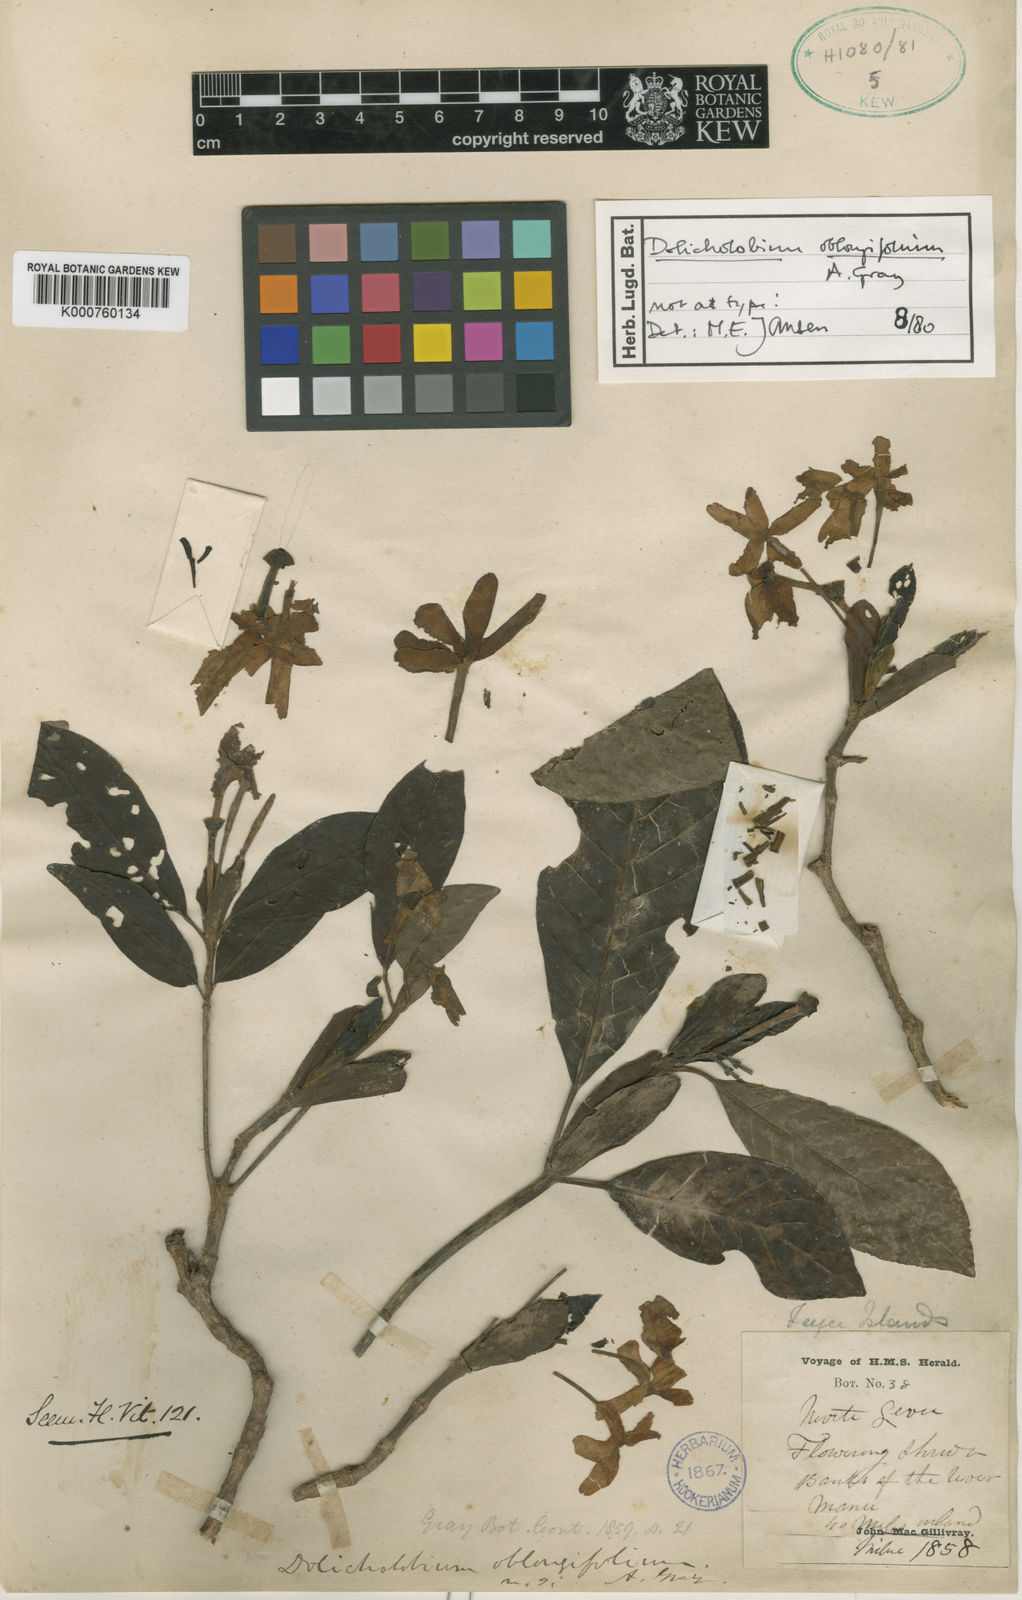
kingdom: Plantae
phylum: Tracheophyta
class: Magnoliopsida
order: Gentianales
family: Rubiaceae
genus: Dolicholobium
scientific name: Dolicholobium oblongifolium
